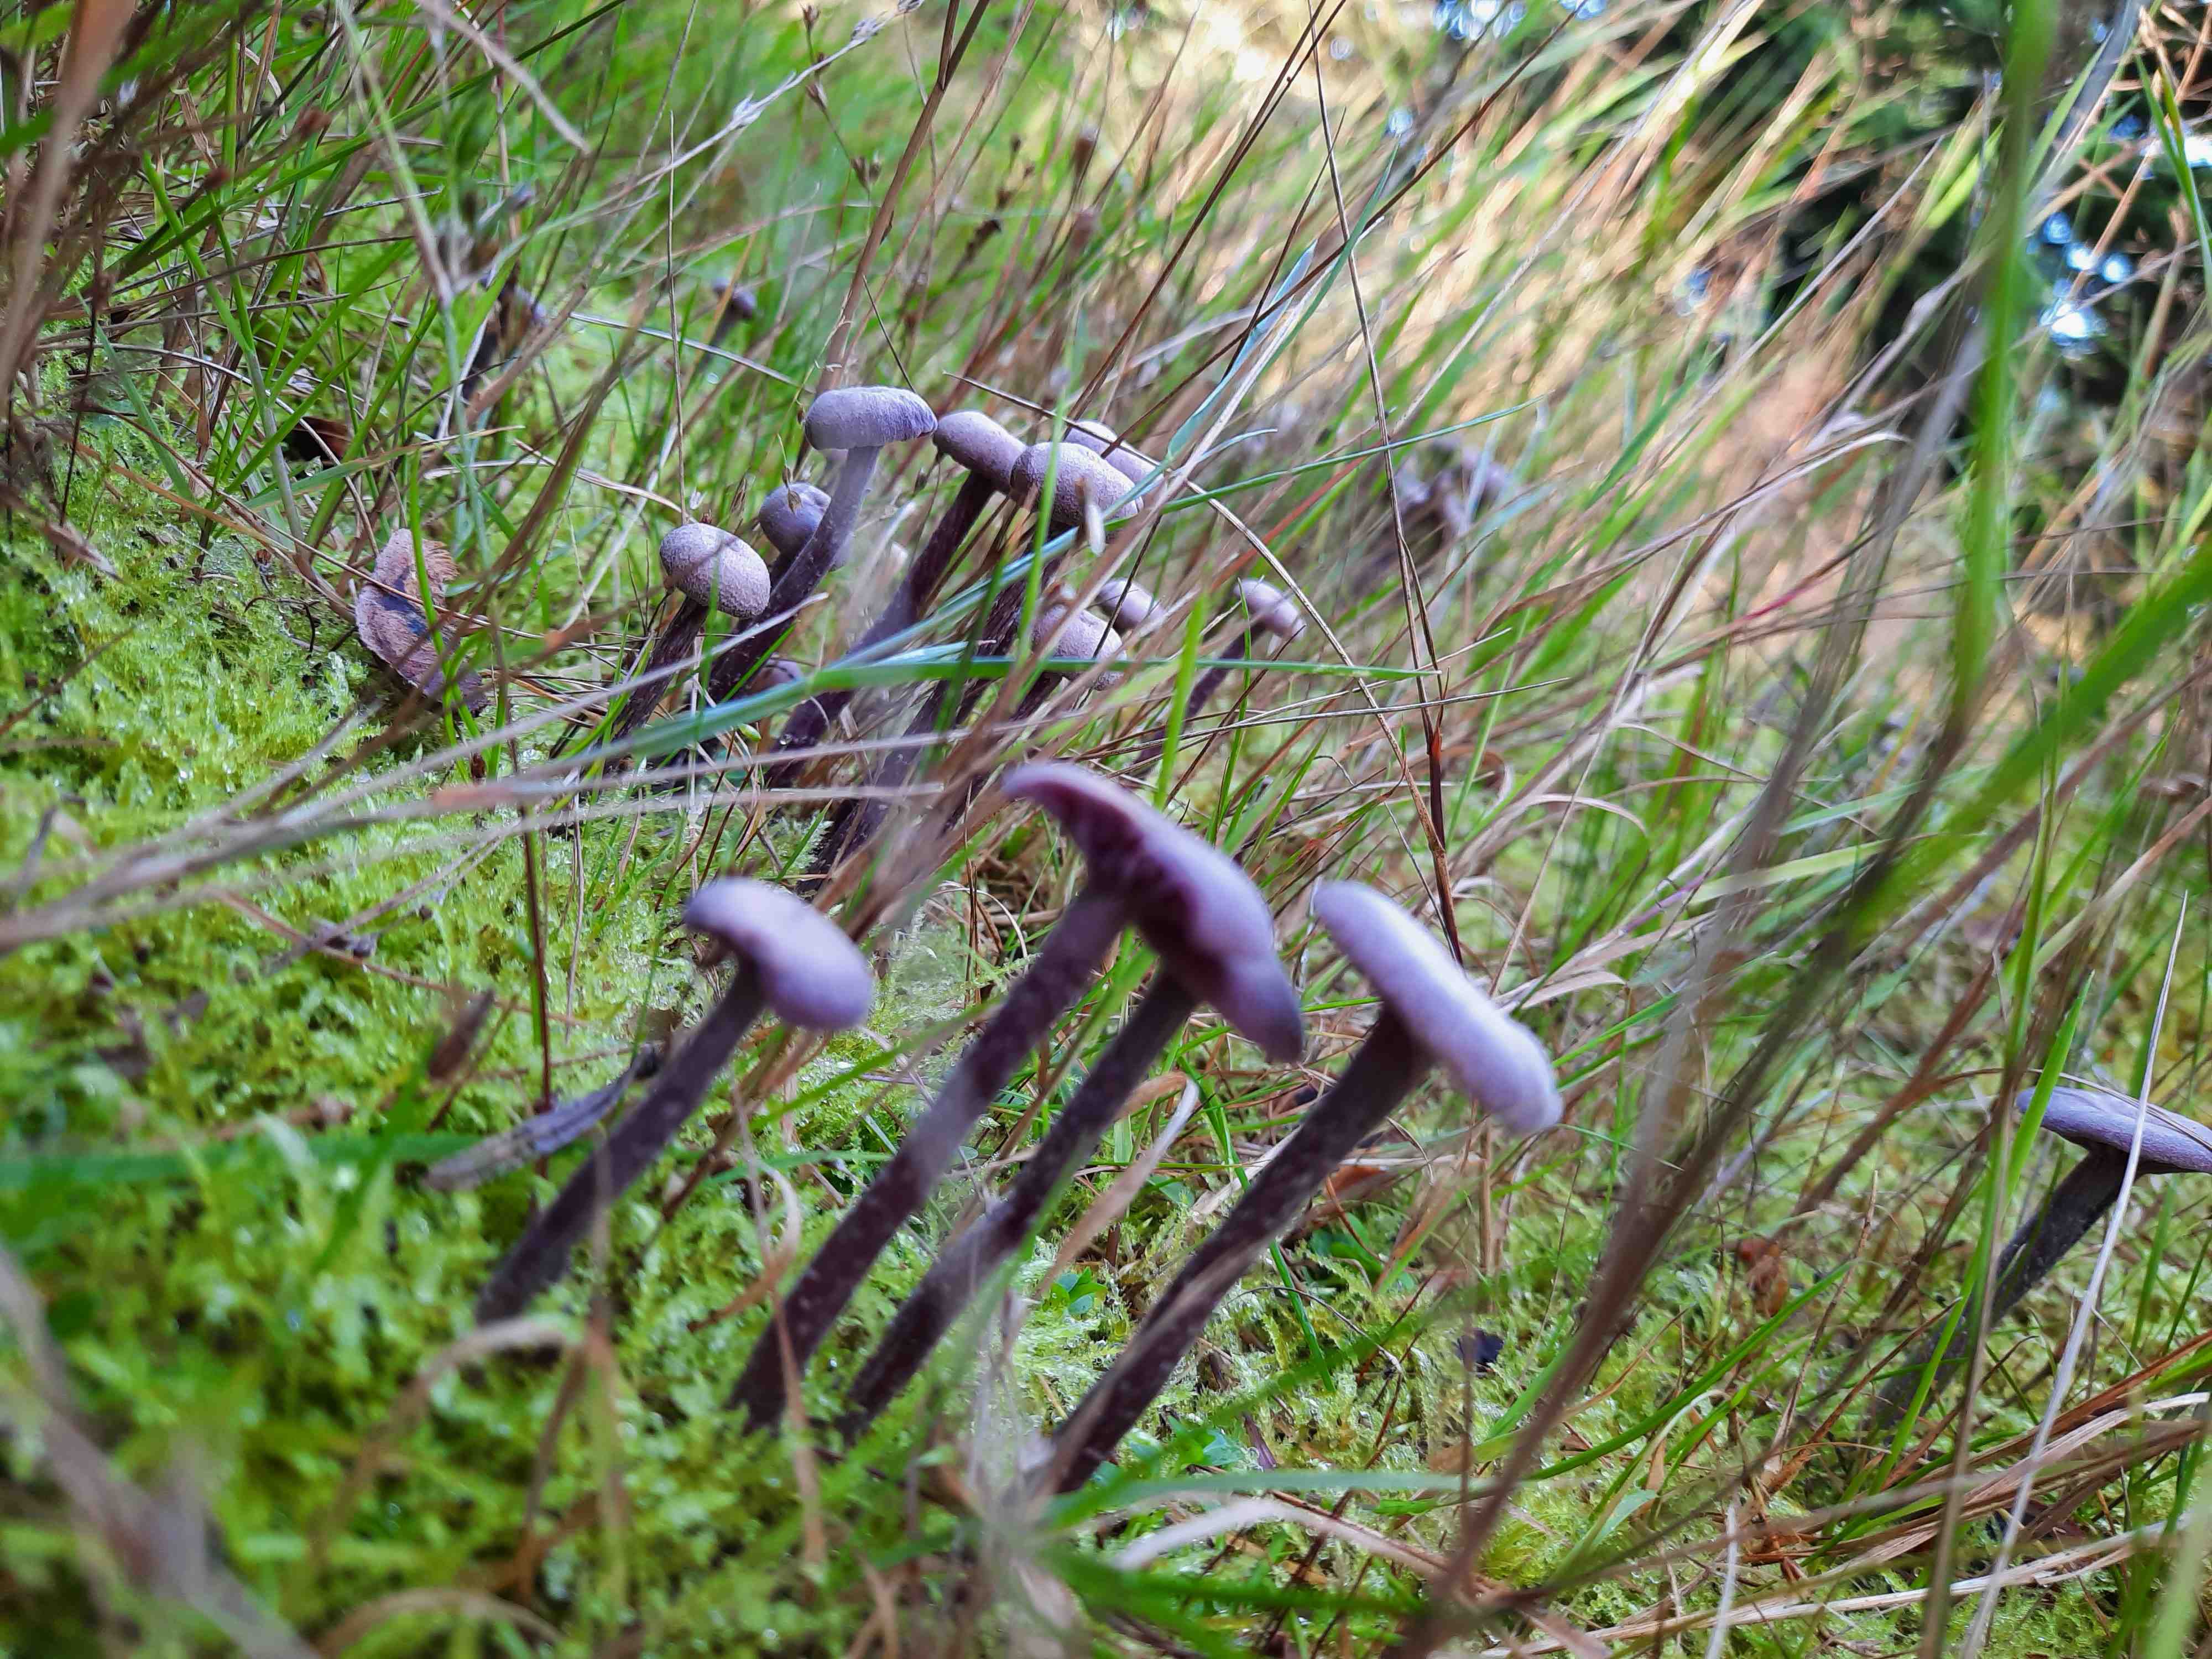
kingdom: Fungi
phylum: Basidiomycota
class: Agaricomycetes
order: Agaricales
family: Hydnangiaceae
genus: Laccaria
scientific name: Laccaria amethystina
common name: violet ametysthat
